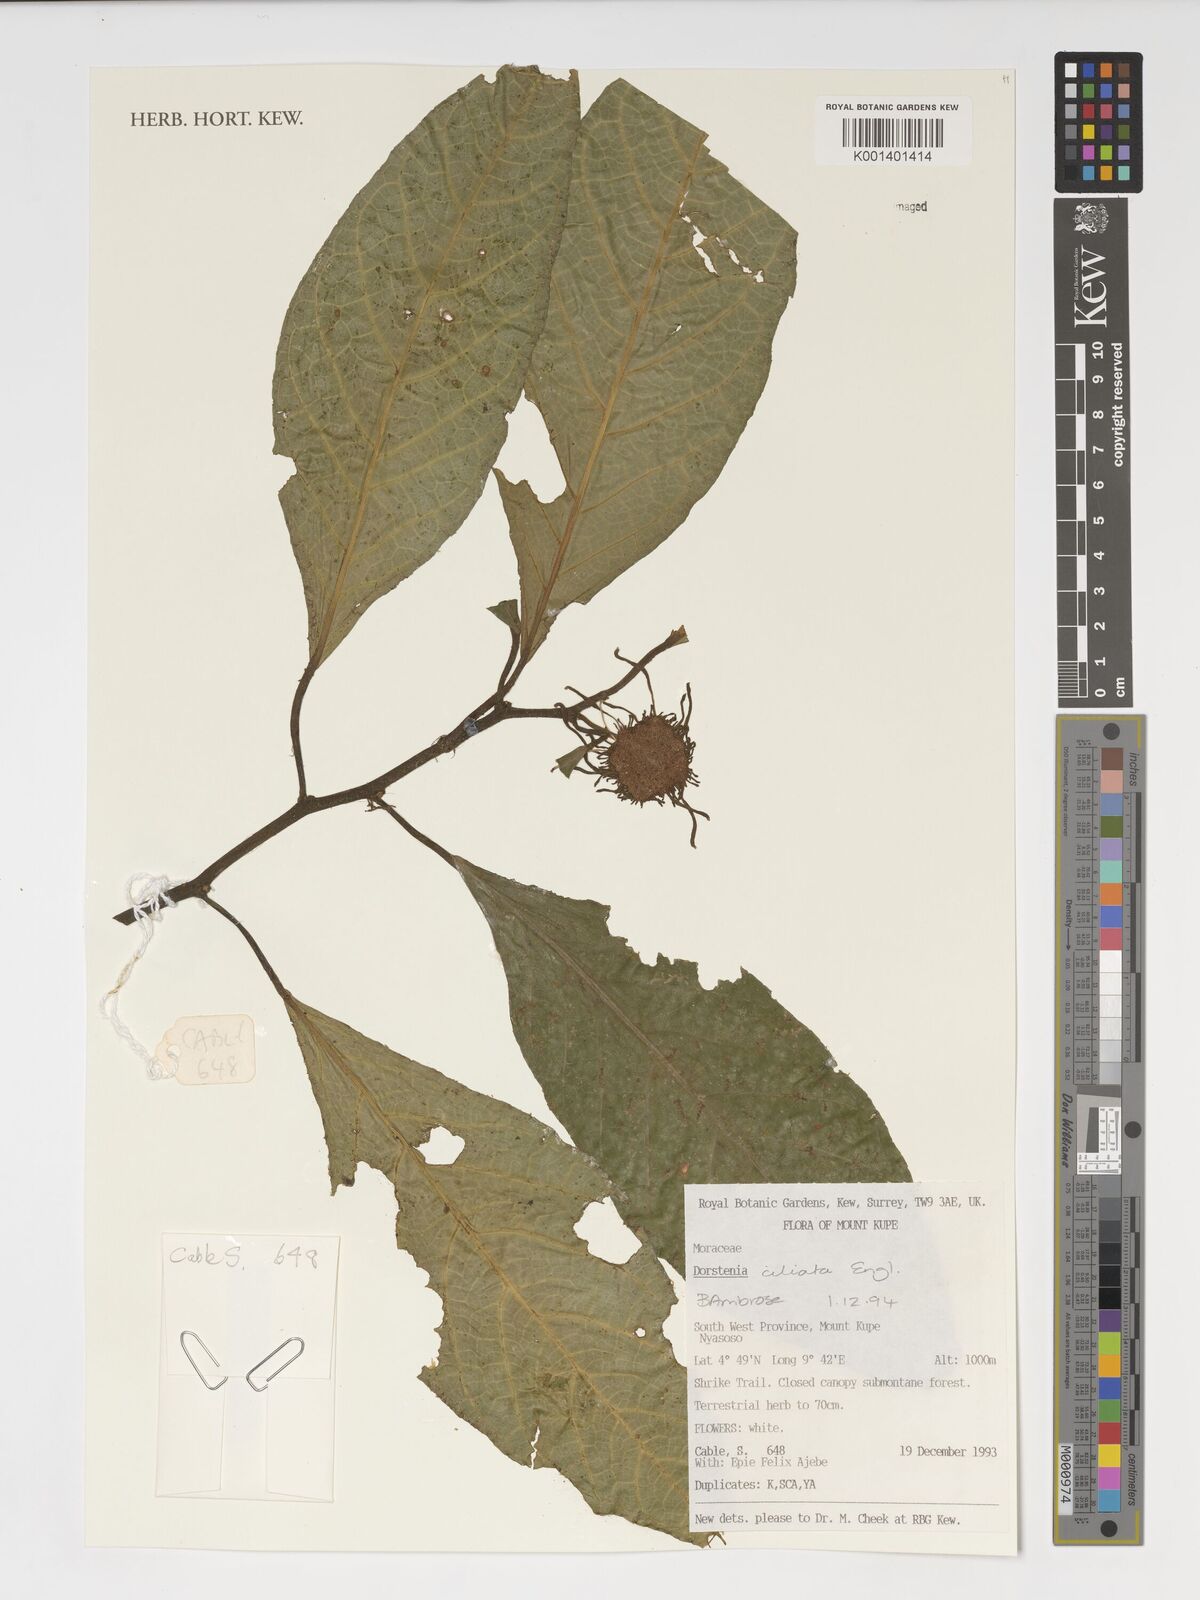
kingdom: Plantae
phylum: Tracheophyta
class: Magnoliopsida
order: Rosales
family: Moraceae
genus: Dorstenia
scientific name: Dorstenia ciliata
